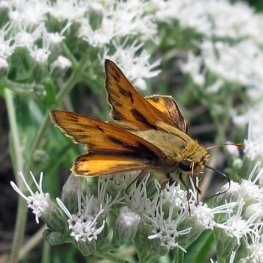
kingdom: Animalia
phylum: Arthropoda
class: Insecta
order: Lepidoptera
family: Hesperiidae
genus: Hylephila
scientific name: Hylephila phyleus
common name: Fiery Skipper
